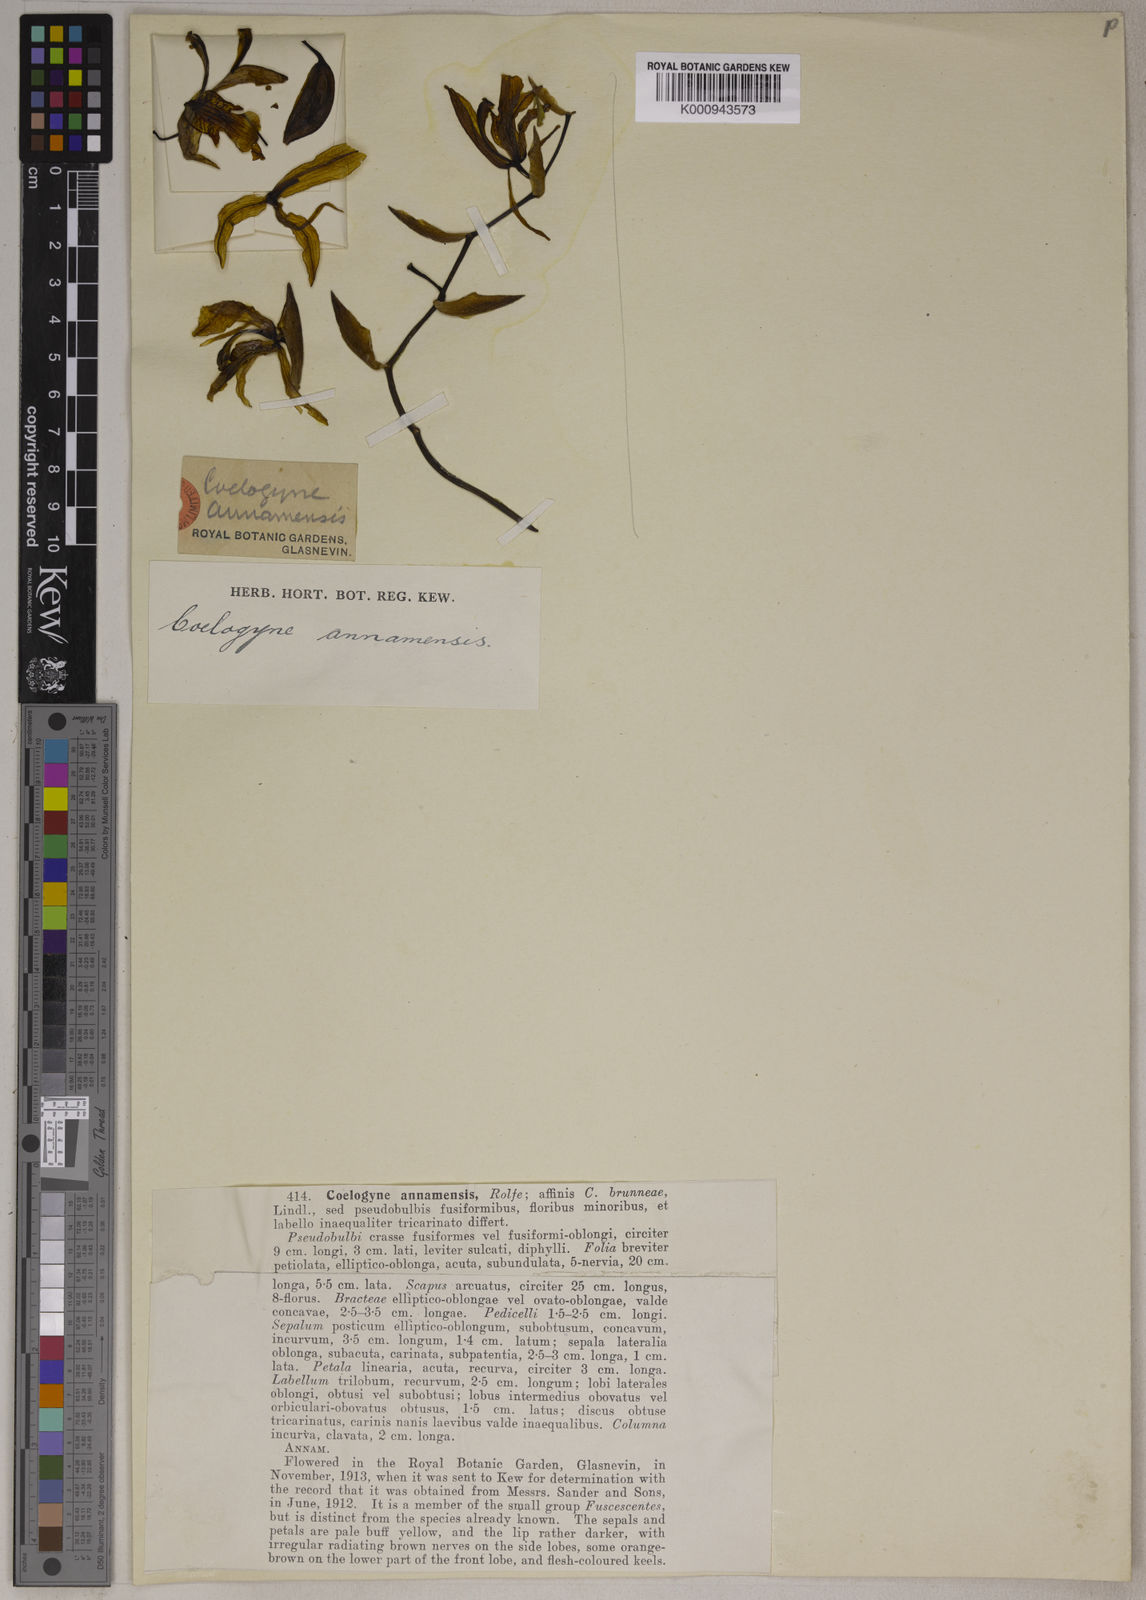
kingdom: Plantae
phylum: Tracheophyta
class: Liliopsida
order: Asparagales
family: Orchidaceae
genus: Coelogyne
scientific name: Coelogyne assamica
